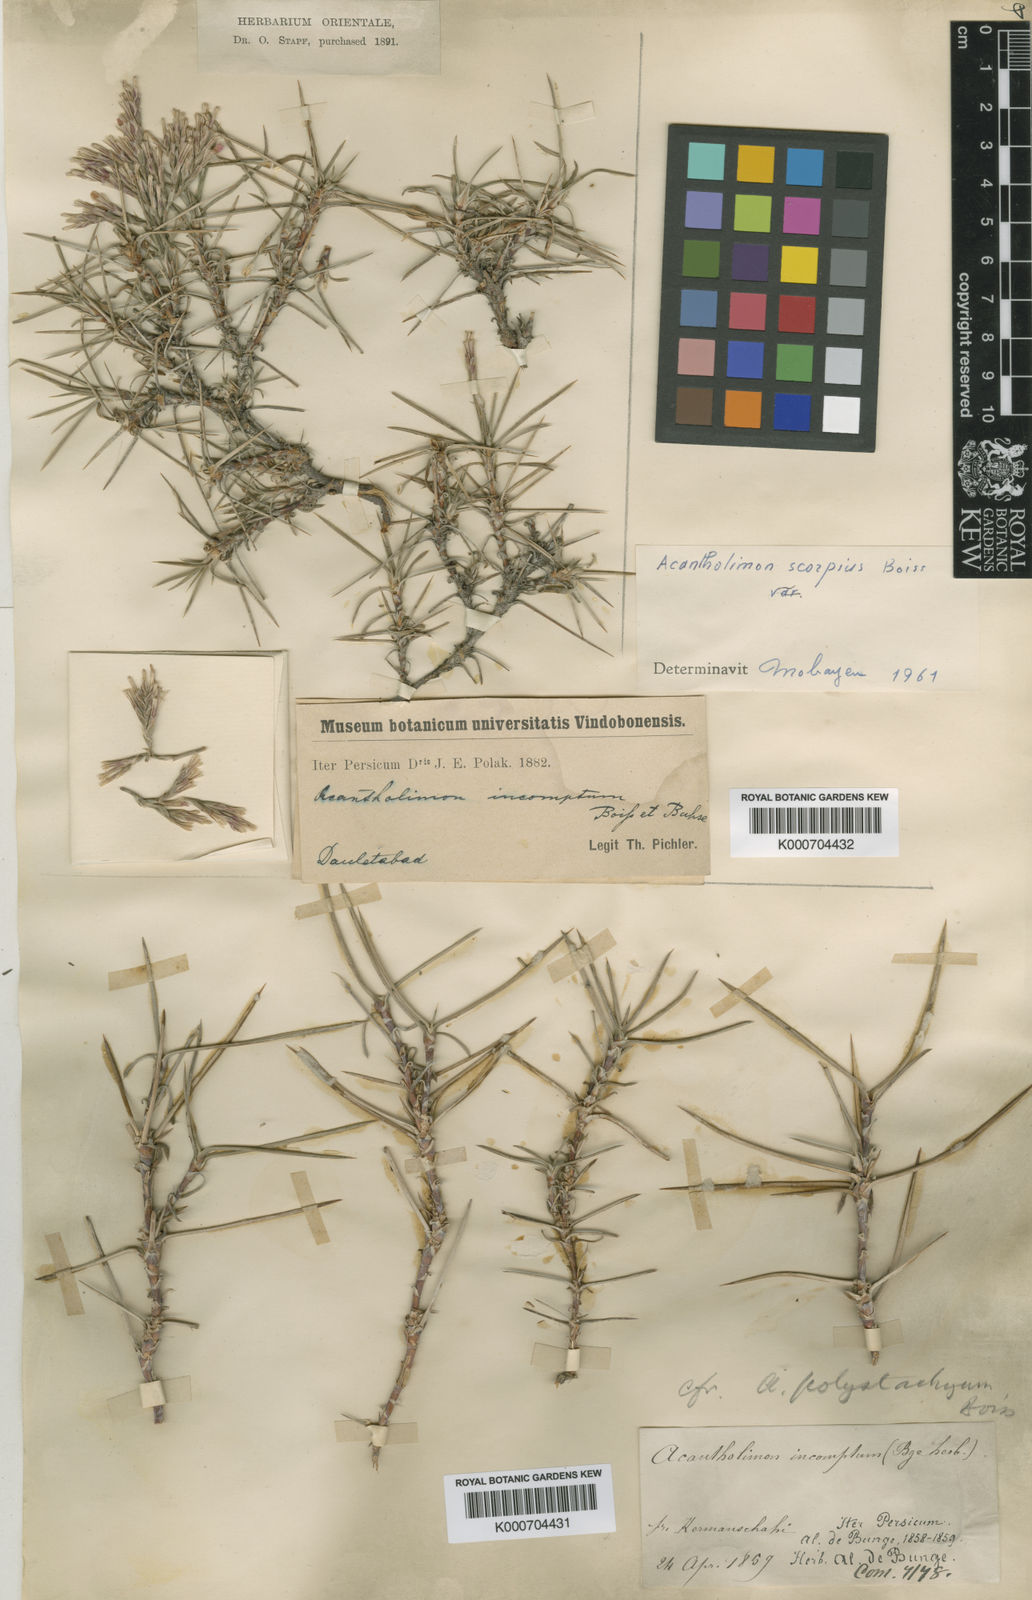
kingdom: Plantae
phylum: Tracheophyta
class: Magnoliopsida
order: Caryophyllales
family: Plumbaginaceae
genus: Acantholimon
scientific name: Acantholimon scorpius
